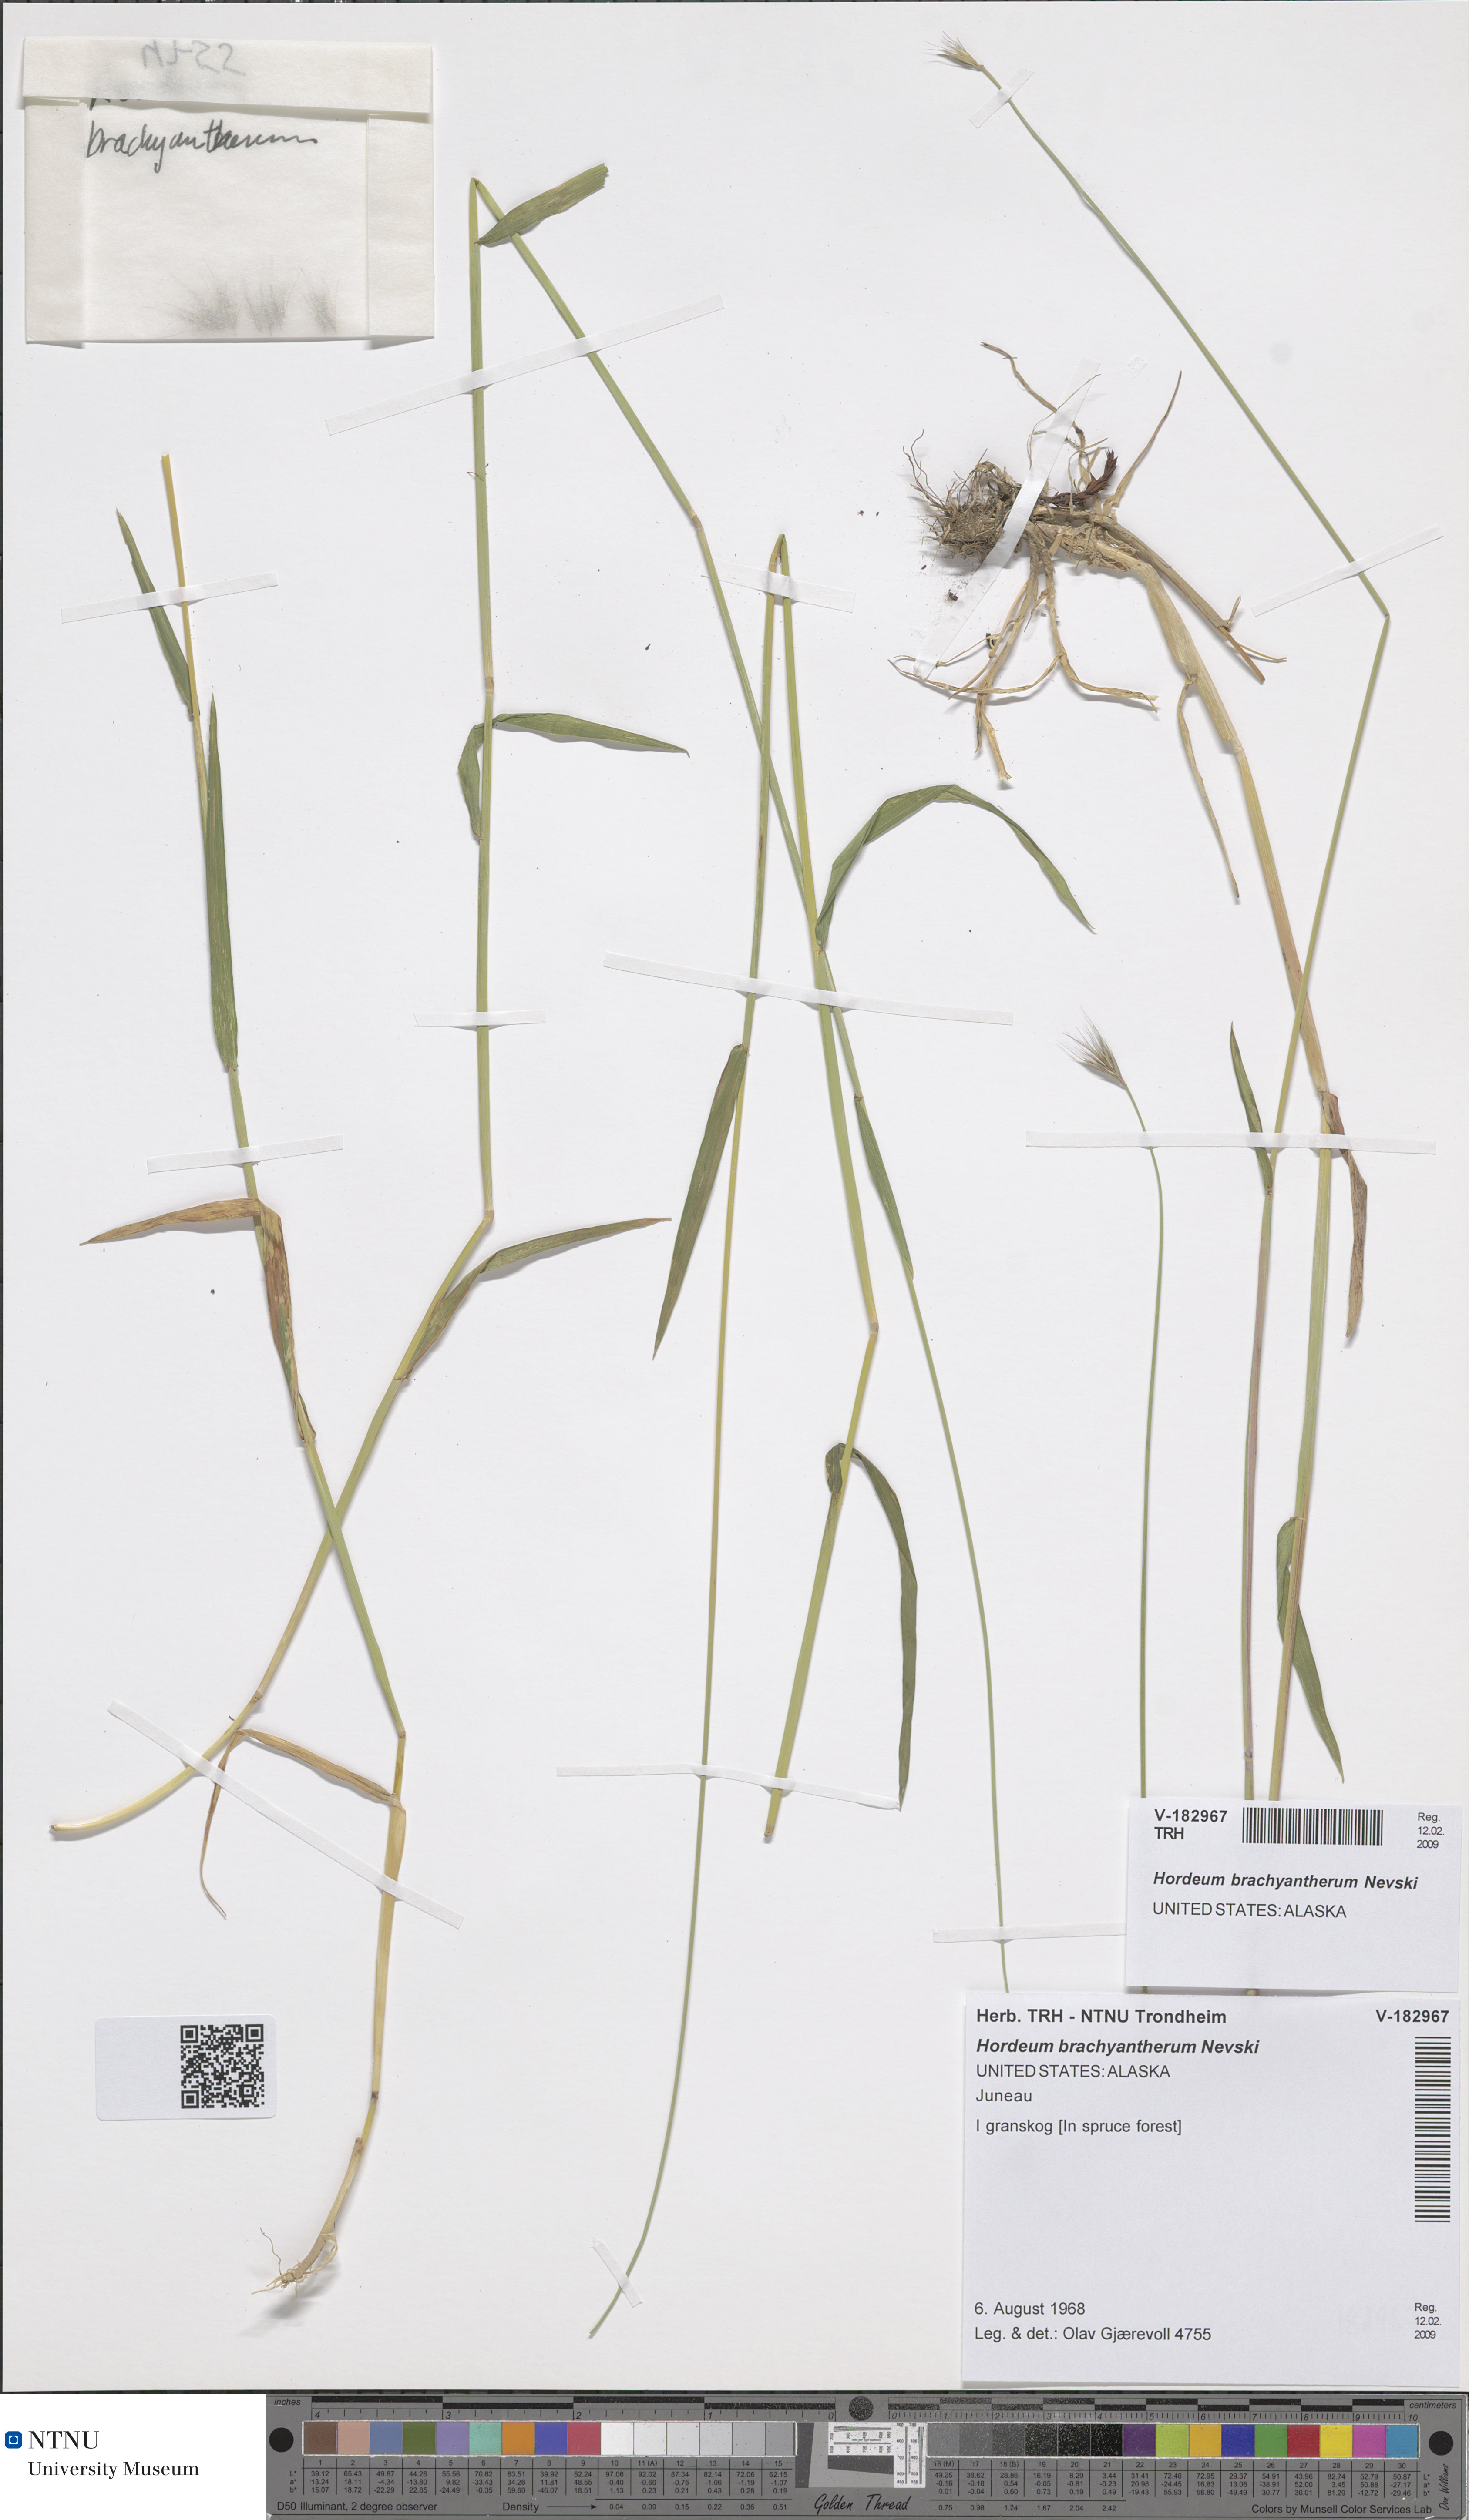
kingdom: Plantae
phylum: Tracheophyta
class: Liliopsida
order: Poales
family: Poaceae
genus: Hordeum
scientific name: Hordeum brachyantherum
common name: Meadow barley
